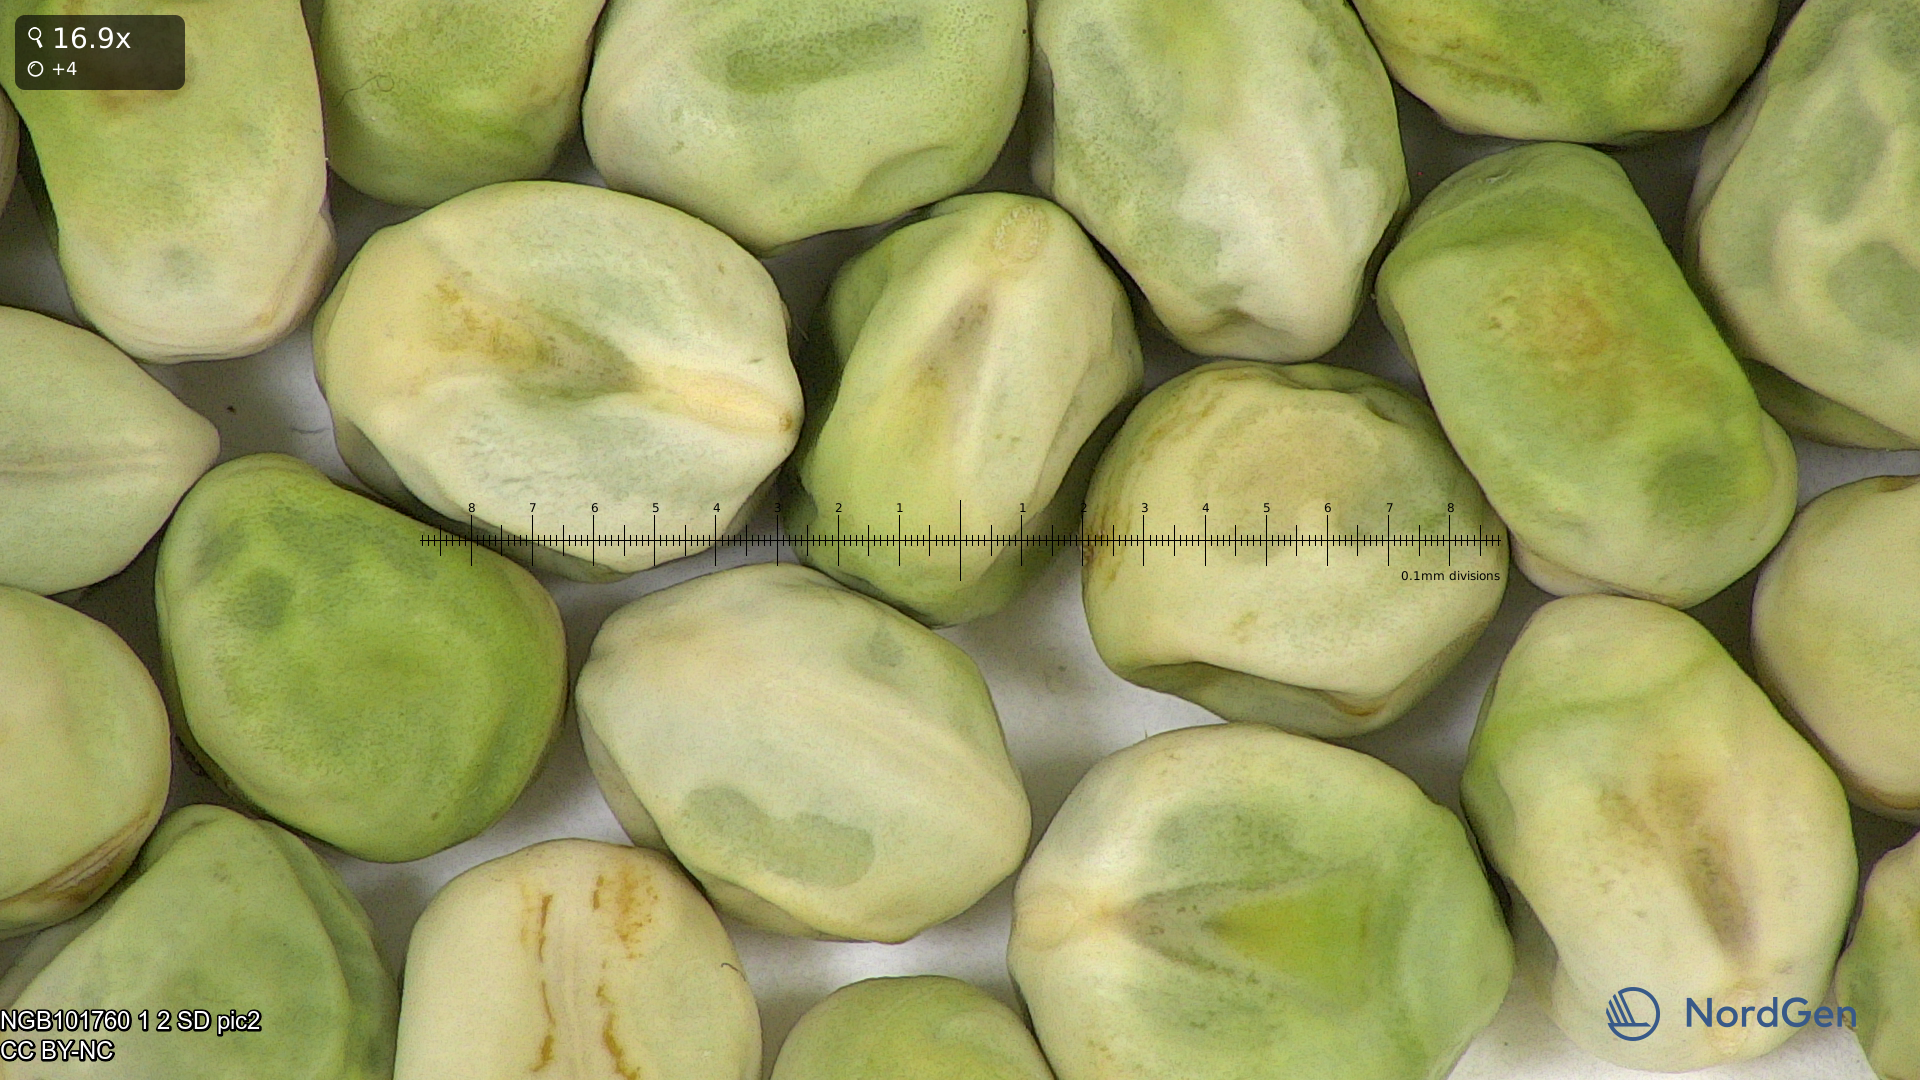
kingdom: Plantae
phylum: Tracheophyta
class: Magnoliopsida
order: Fabales
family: Fabaceae
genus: Lathyrus
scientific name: Lathyrus oleraceus
